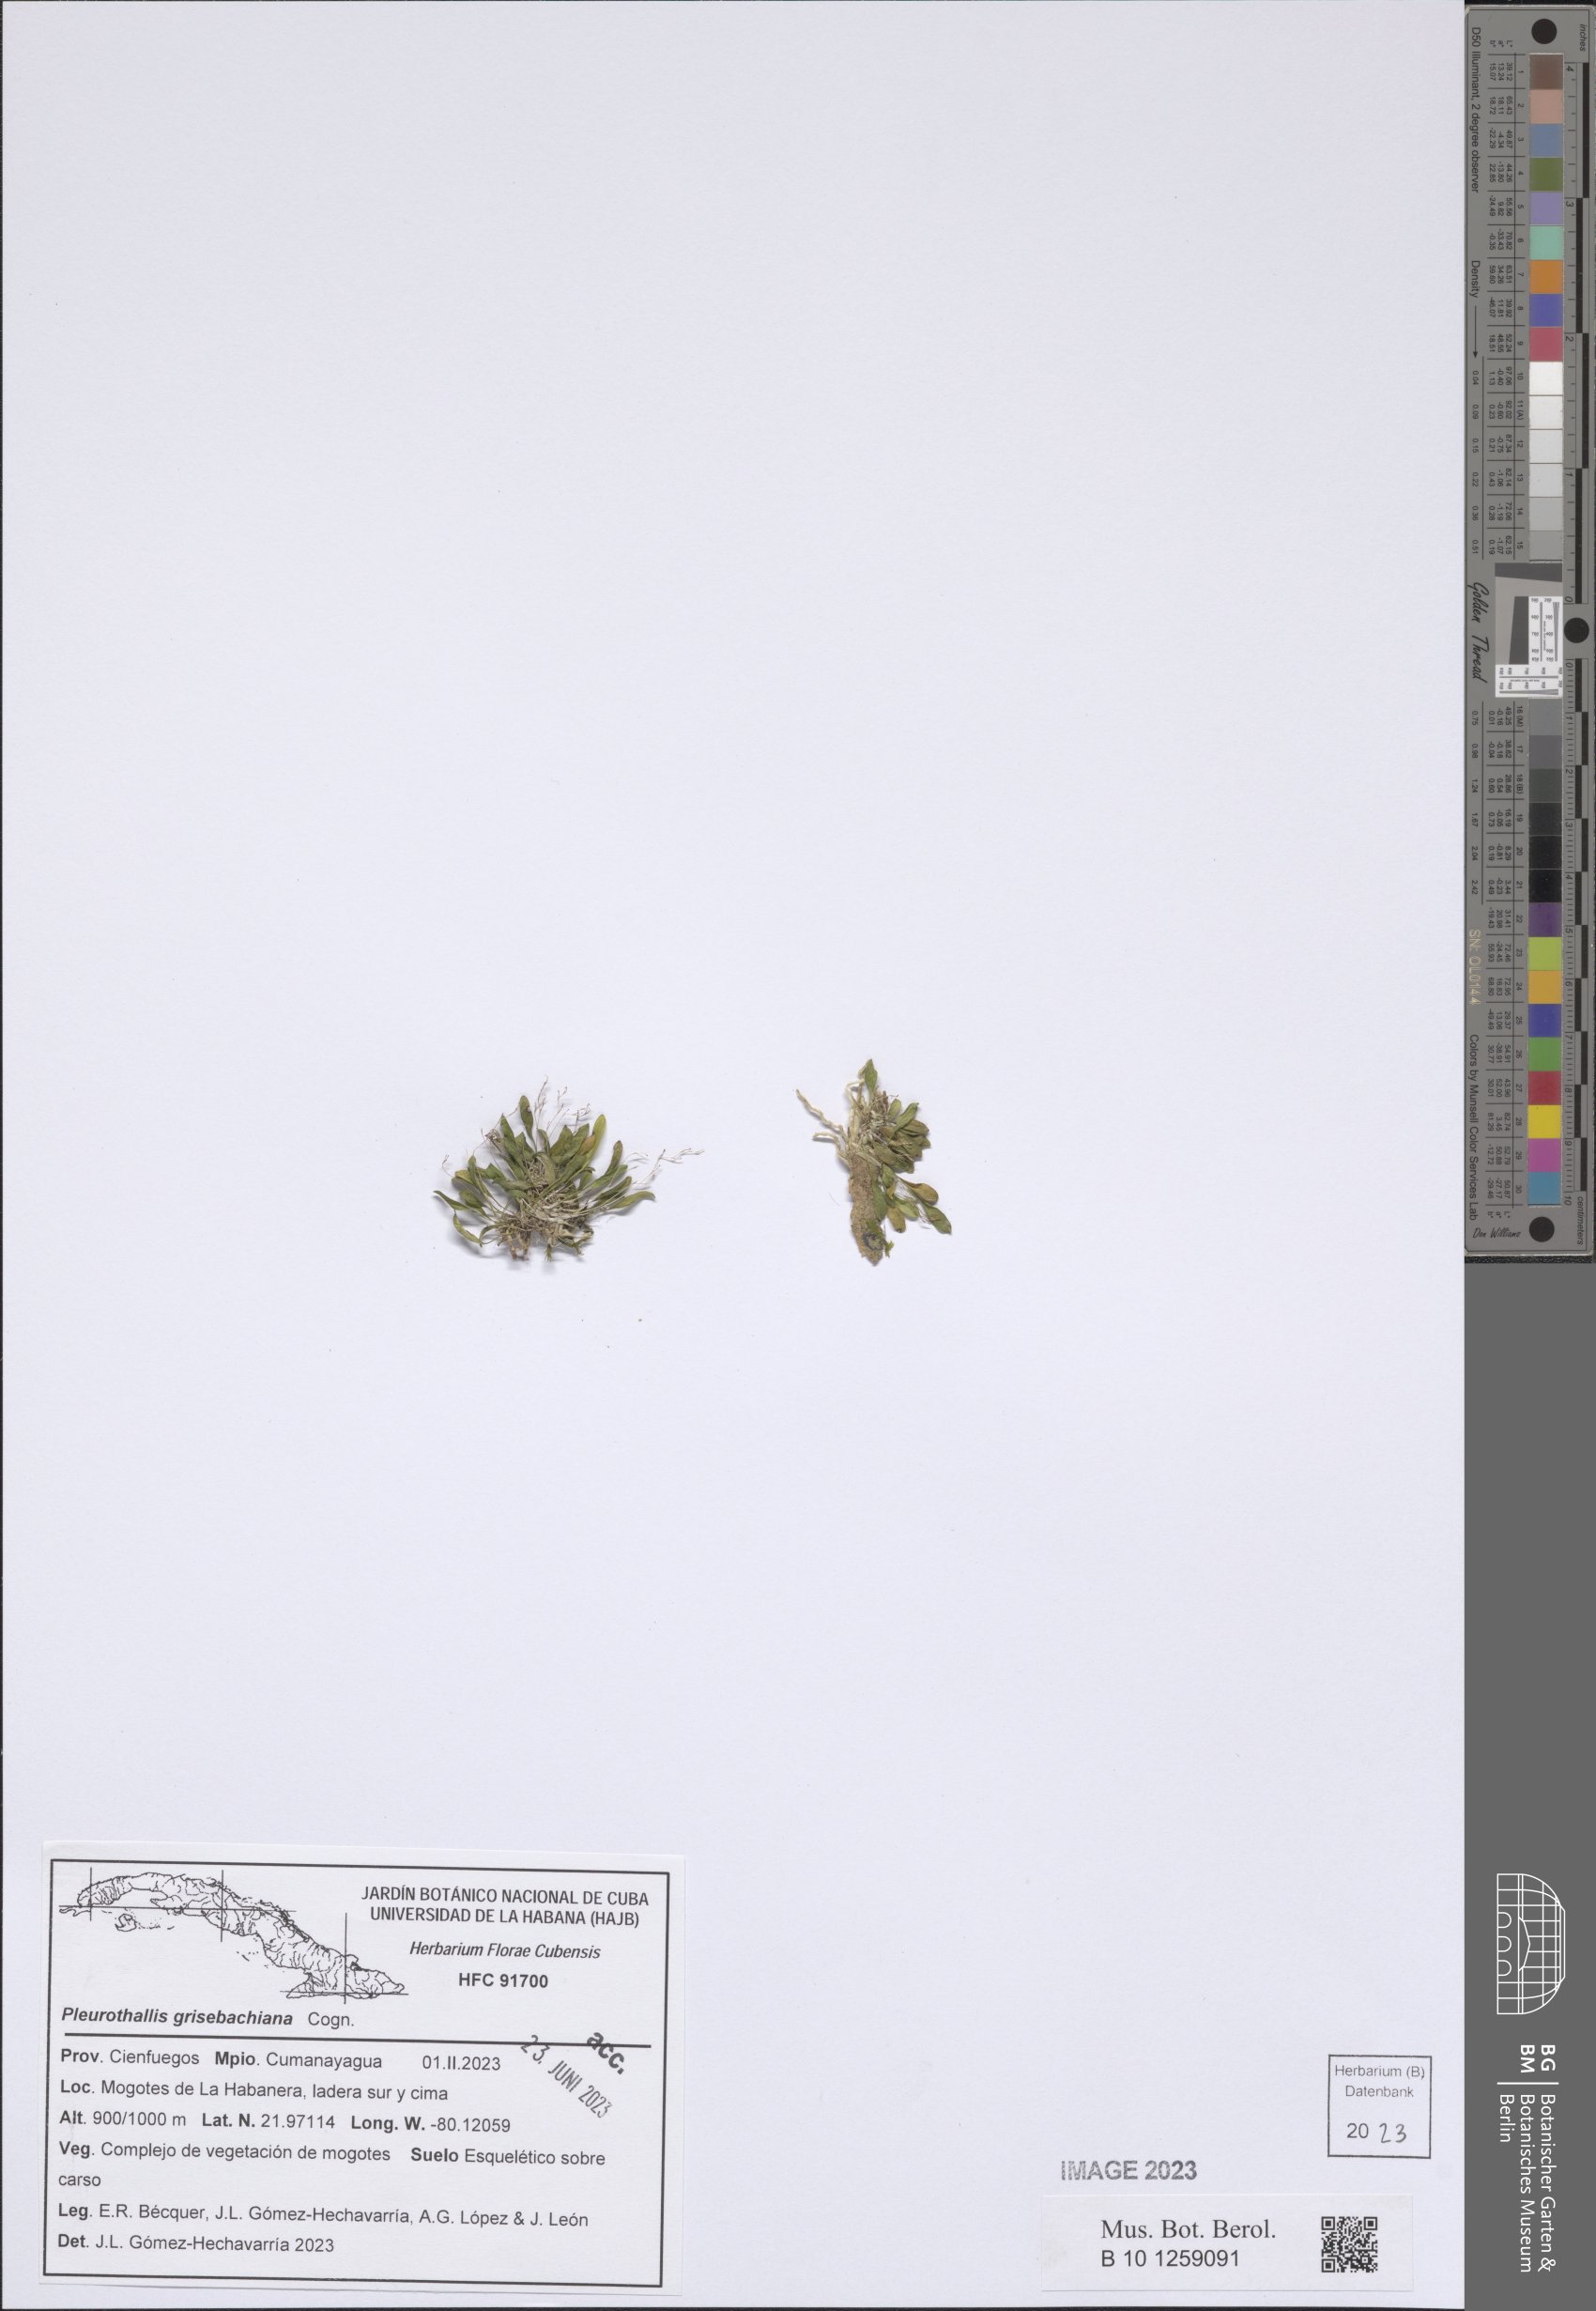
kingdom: Plantae
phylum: Tracheophyta
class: Liliopsida
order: Asparagales
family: Orchidaceae
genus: Specklinia
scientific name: Specklinia grisebachiana
